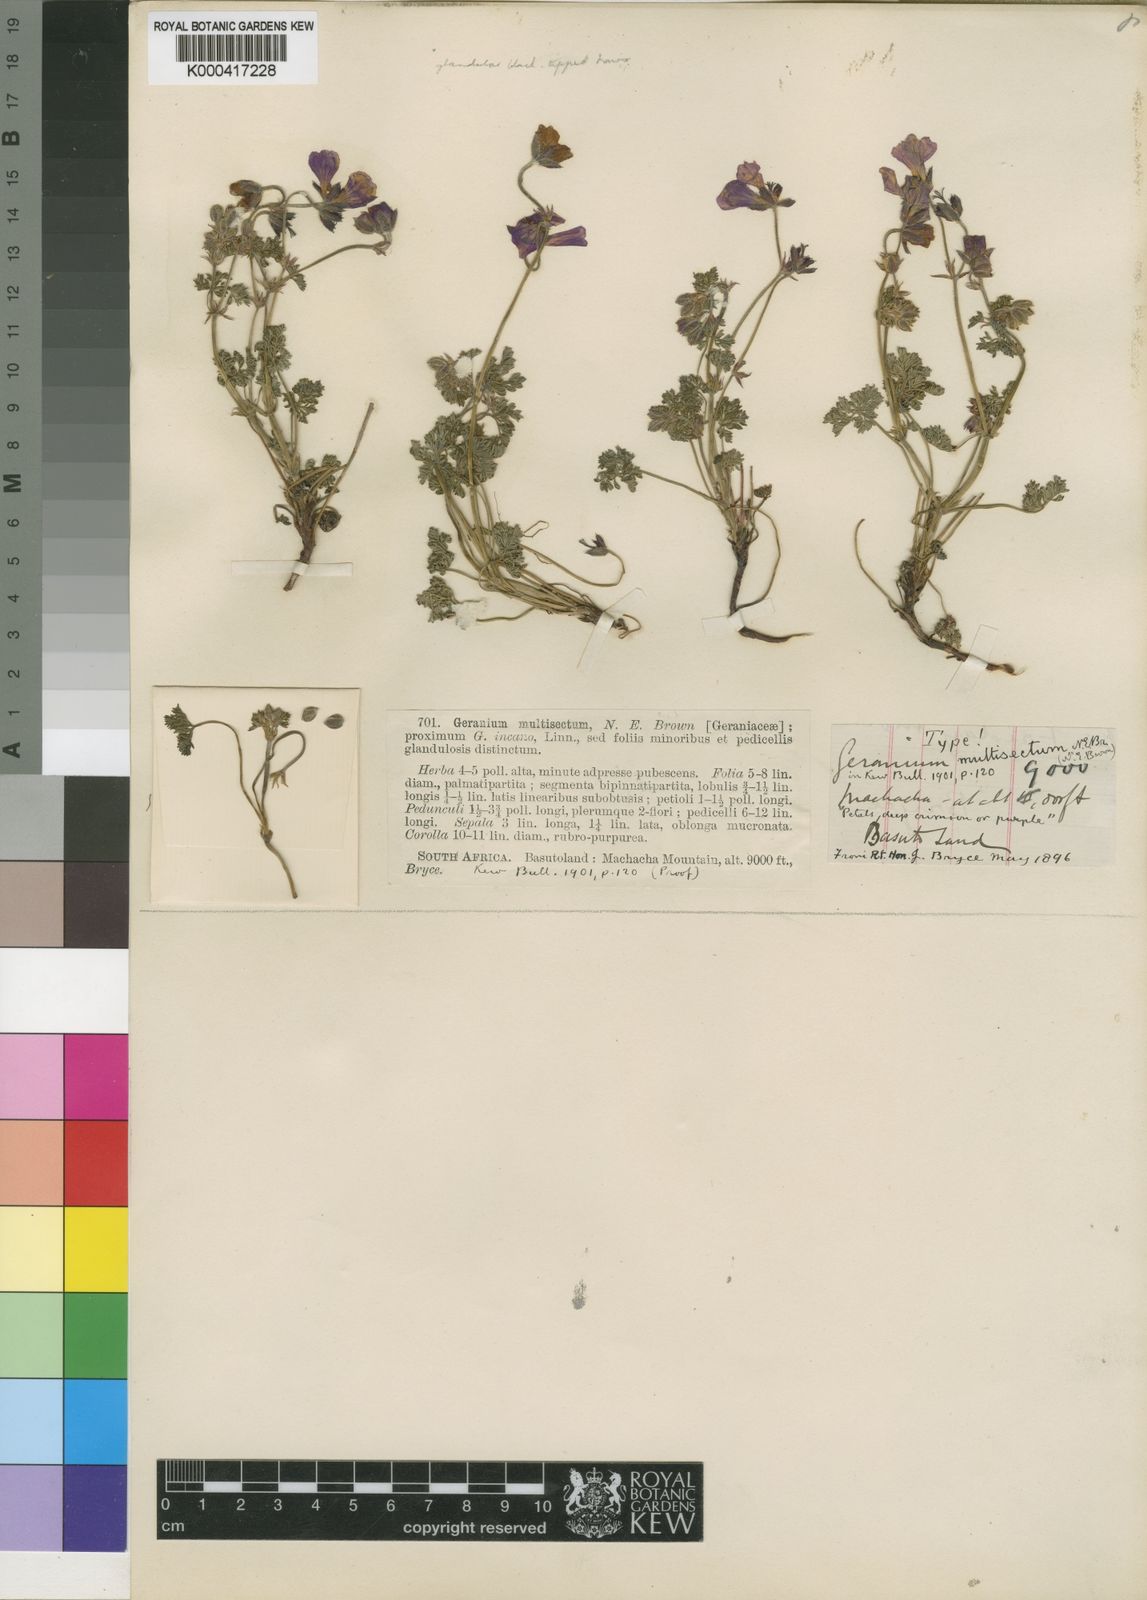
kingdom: Plantae
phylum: Tracheophyta
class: Magnoliopsida
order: Geraniales
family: Geraniaceae
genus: Geranium
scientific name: Geranium multisectum
